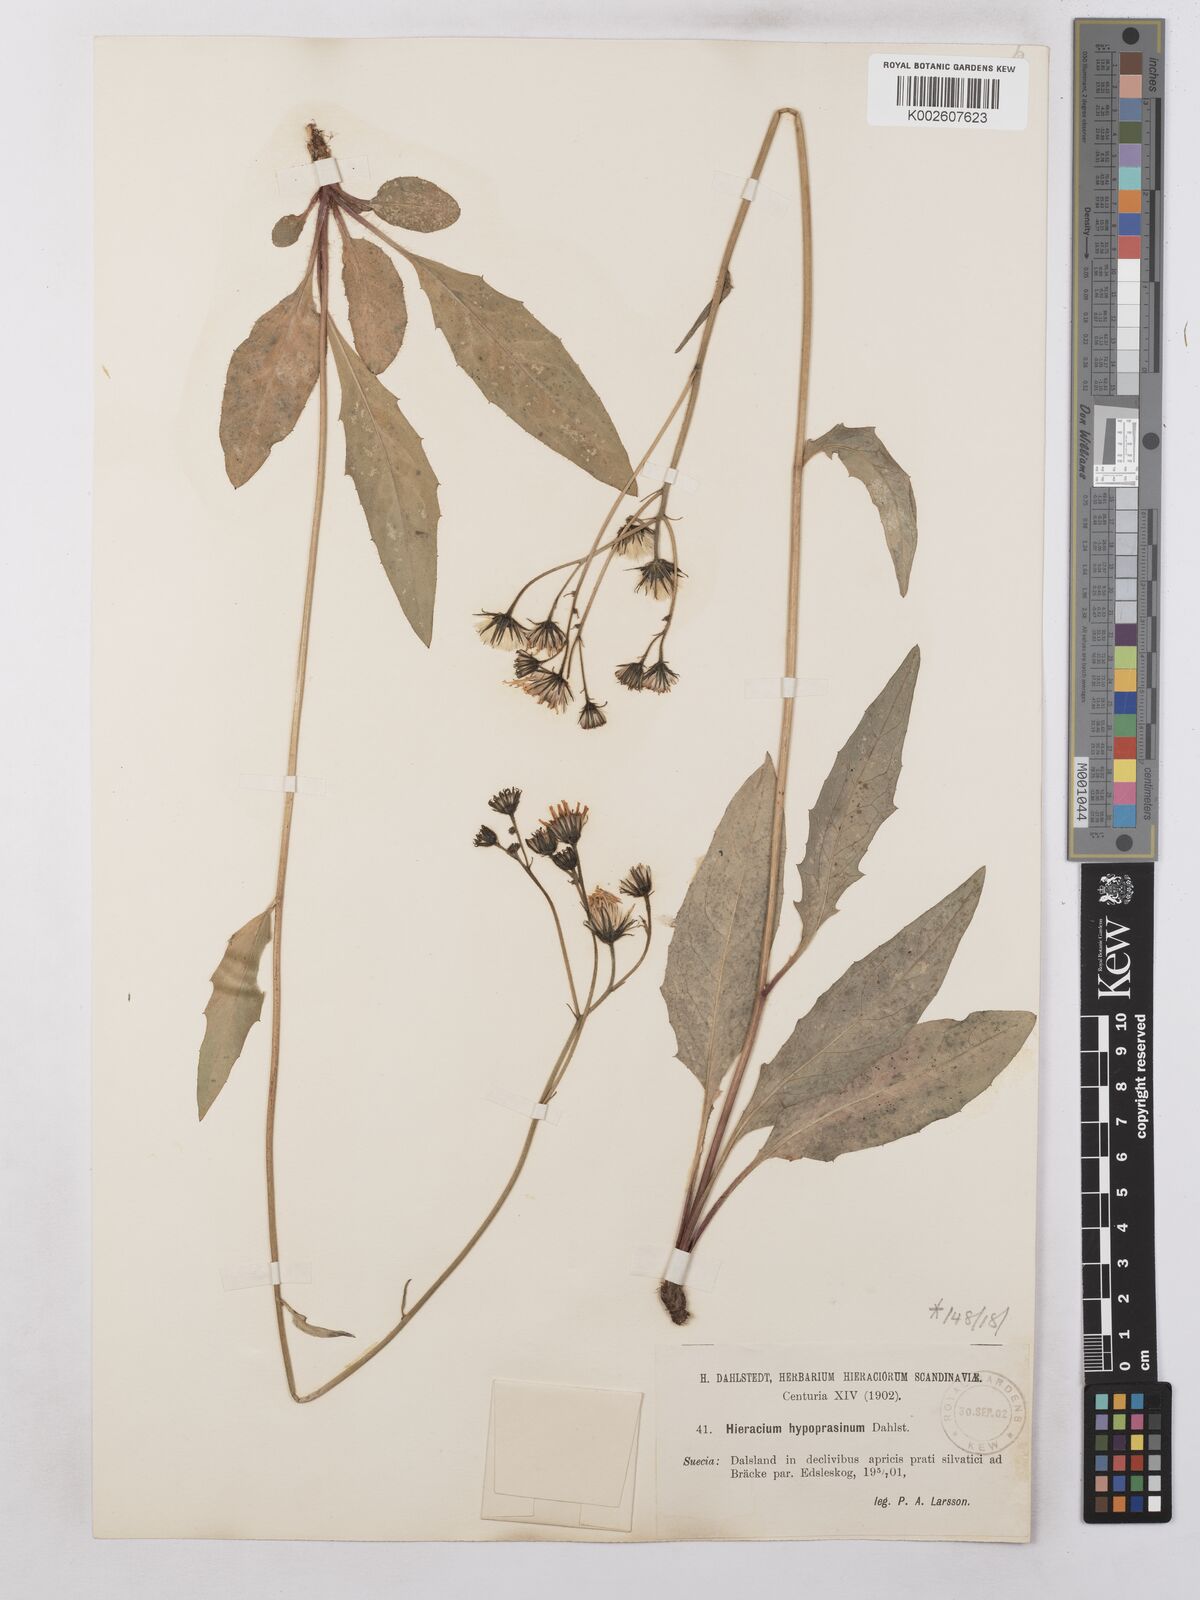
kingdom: Plantae
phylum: Tracheophyta
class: Magnoliopsida
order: Asterales
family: Asteraceae
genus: Hieracium
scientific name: Hieracium subramosum
